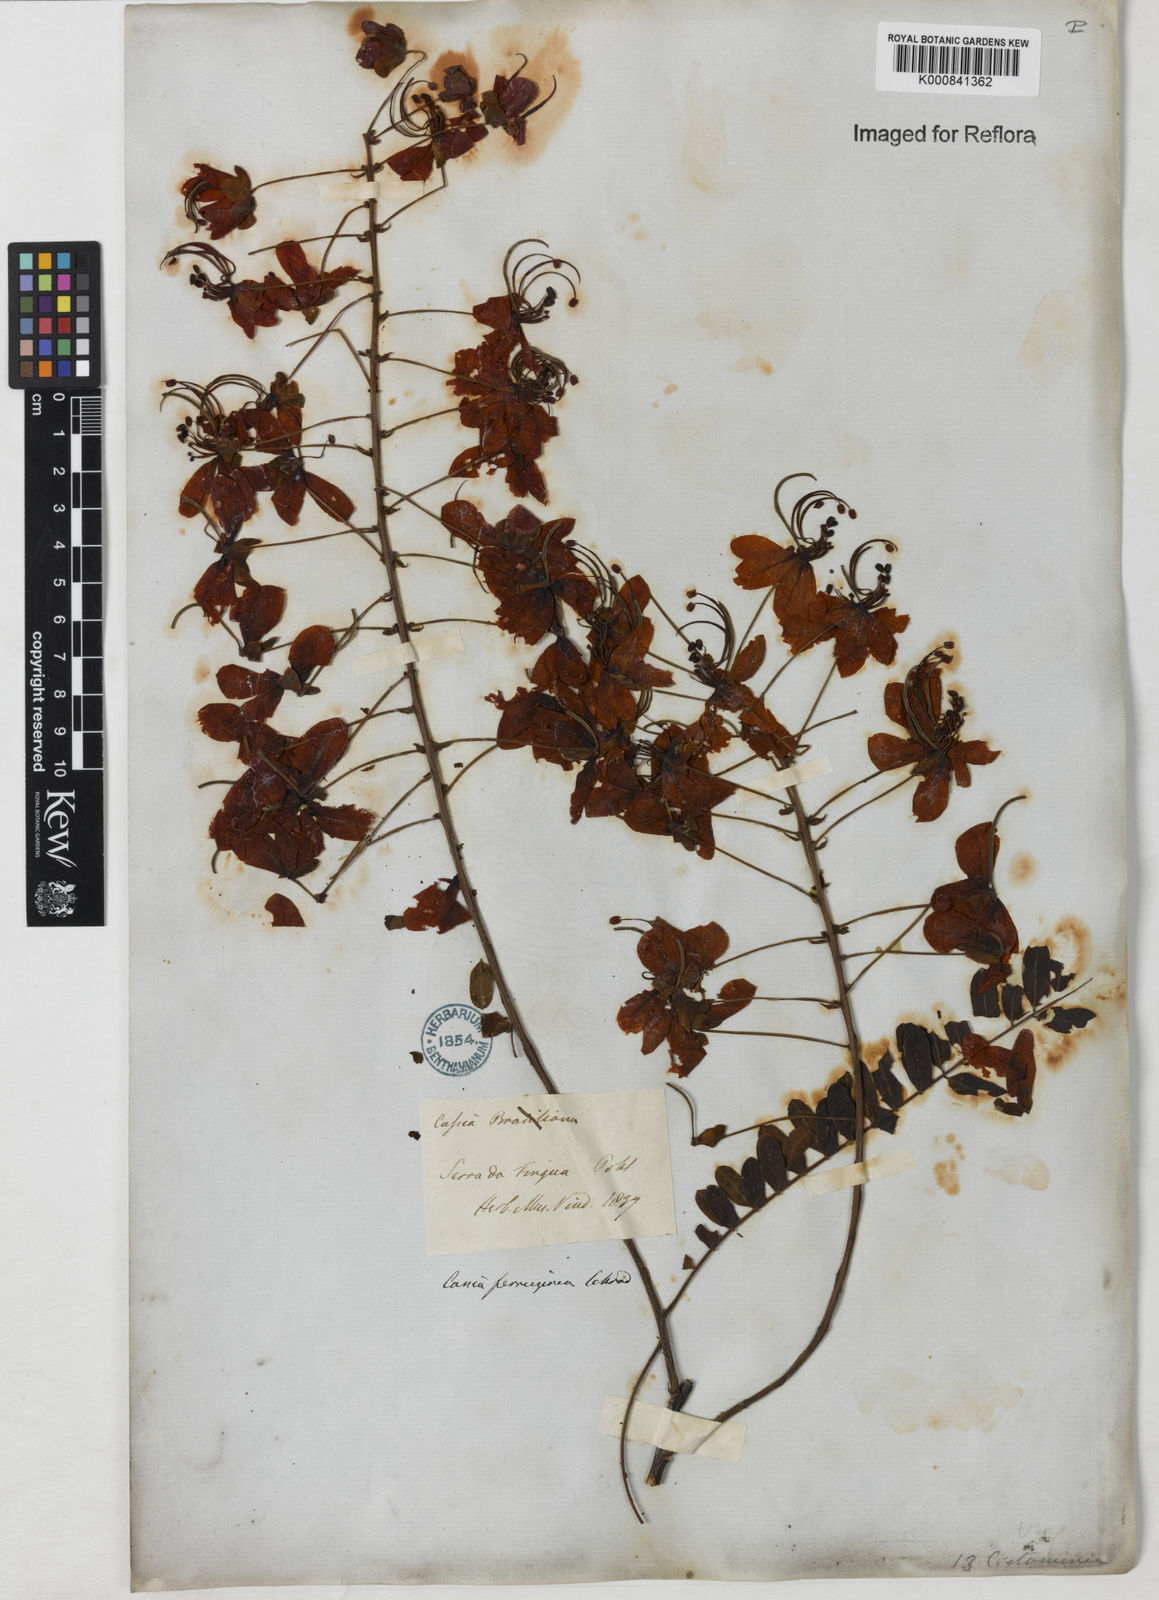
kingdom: Plantae
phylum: Tracheophyta
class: Magnoliopsida
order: Fabales
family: Fabaceae
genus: Cassia
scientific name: Cassia ferruginea
